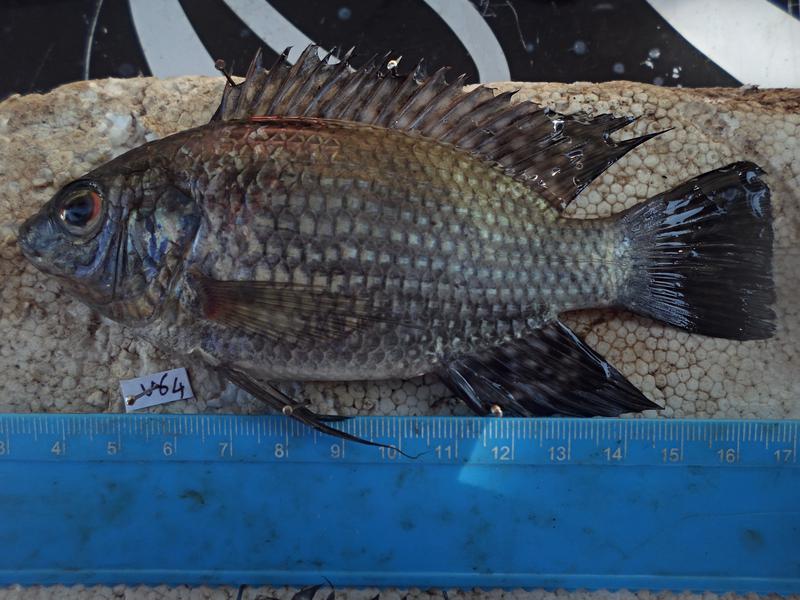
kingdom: Animalia
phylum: Chordata
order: Perciformes
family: Cichlidae
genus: Oreochromis
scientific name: Oreochromis leucostictus
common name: Blue spotted tilapia
